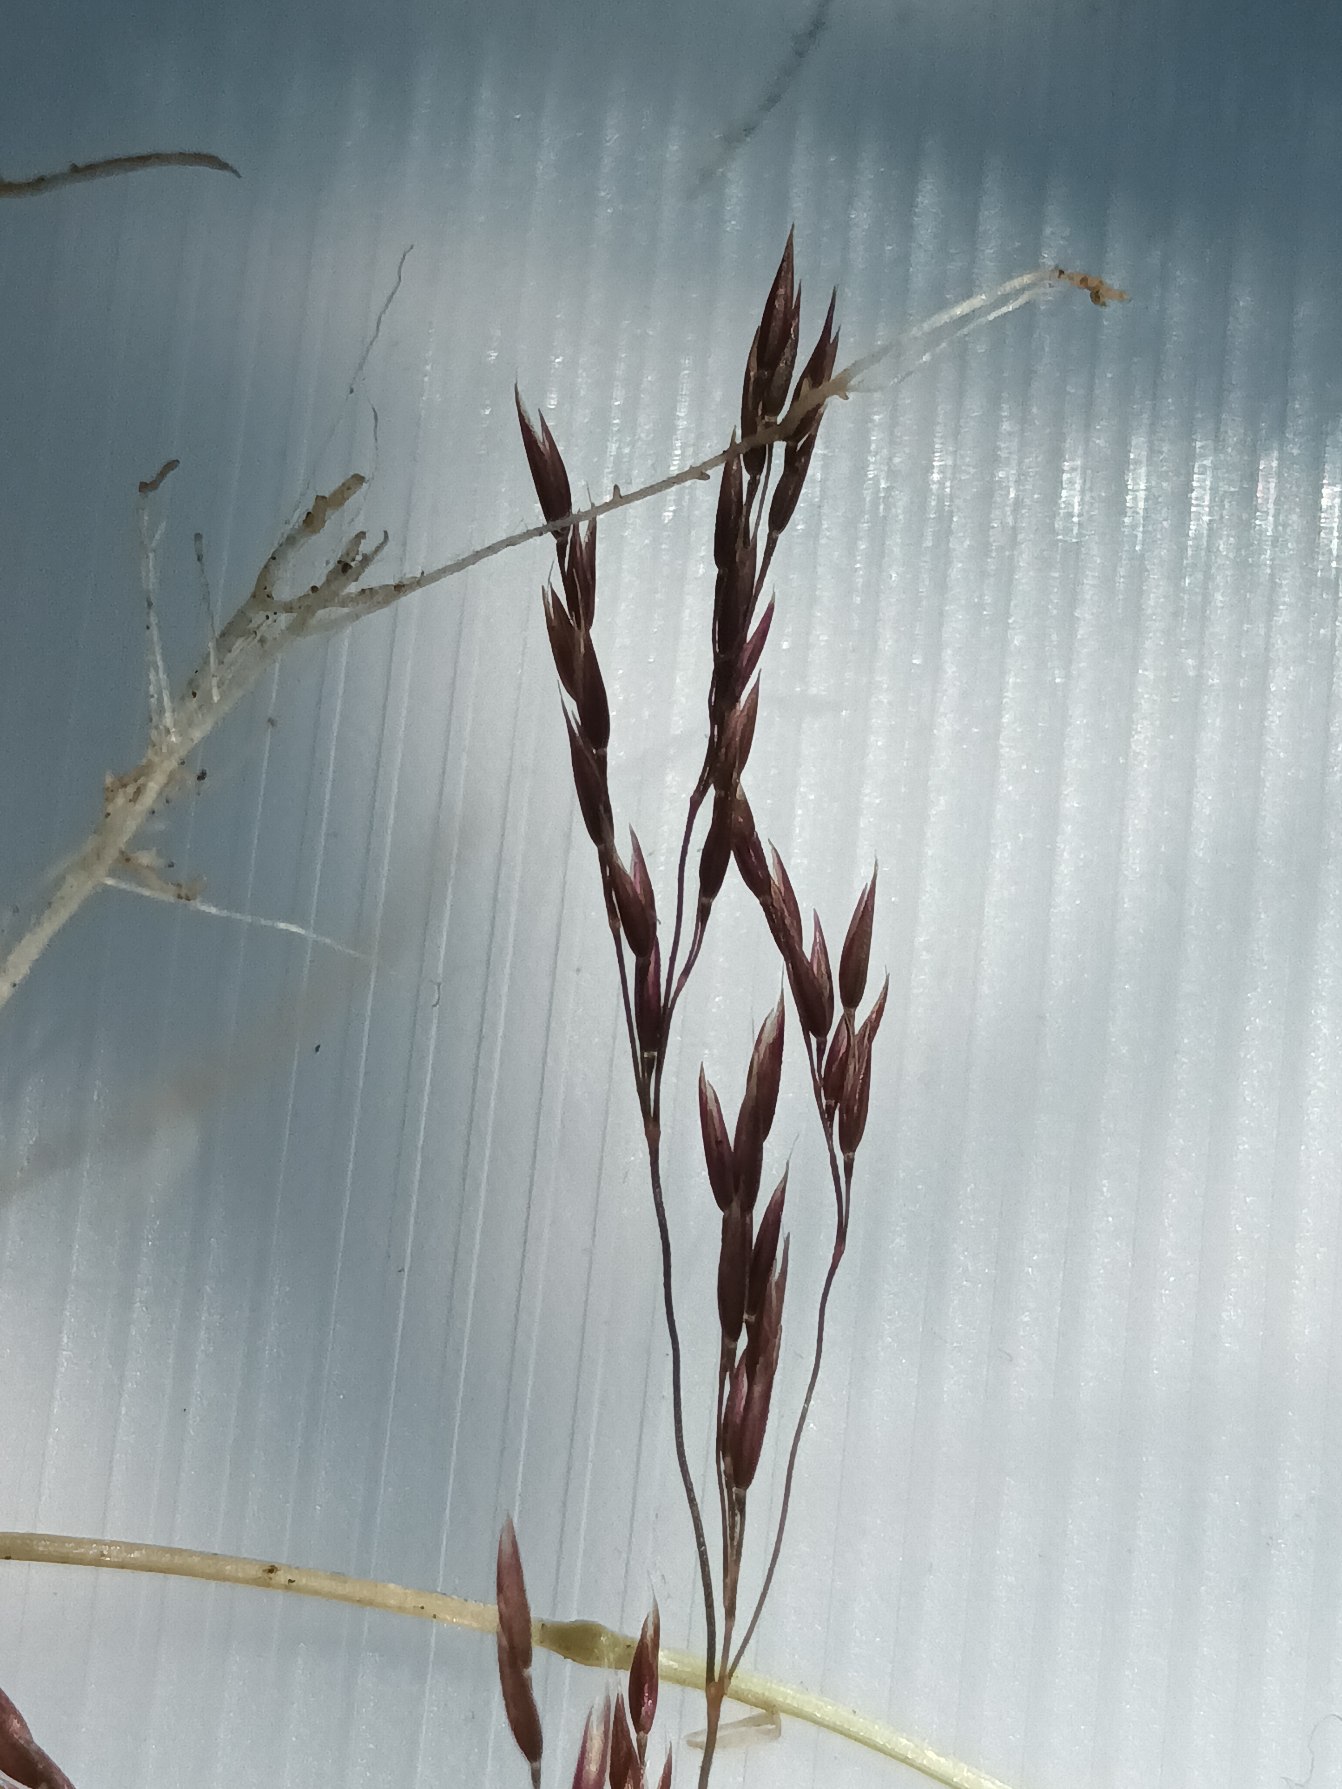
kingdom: Plantae
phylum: Tracheophyta
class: Liliopsida
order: Poales
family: Poaceae
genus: Agrostis
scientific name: Agrostis canina
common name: Hunde-hvene
